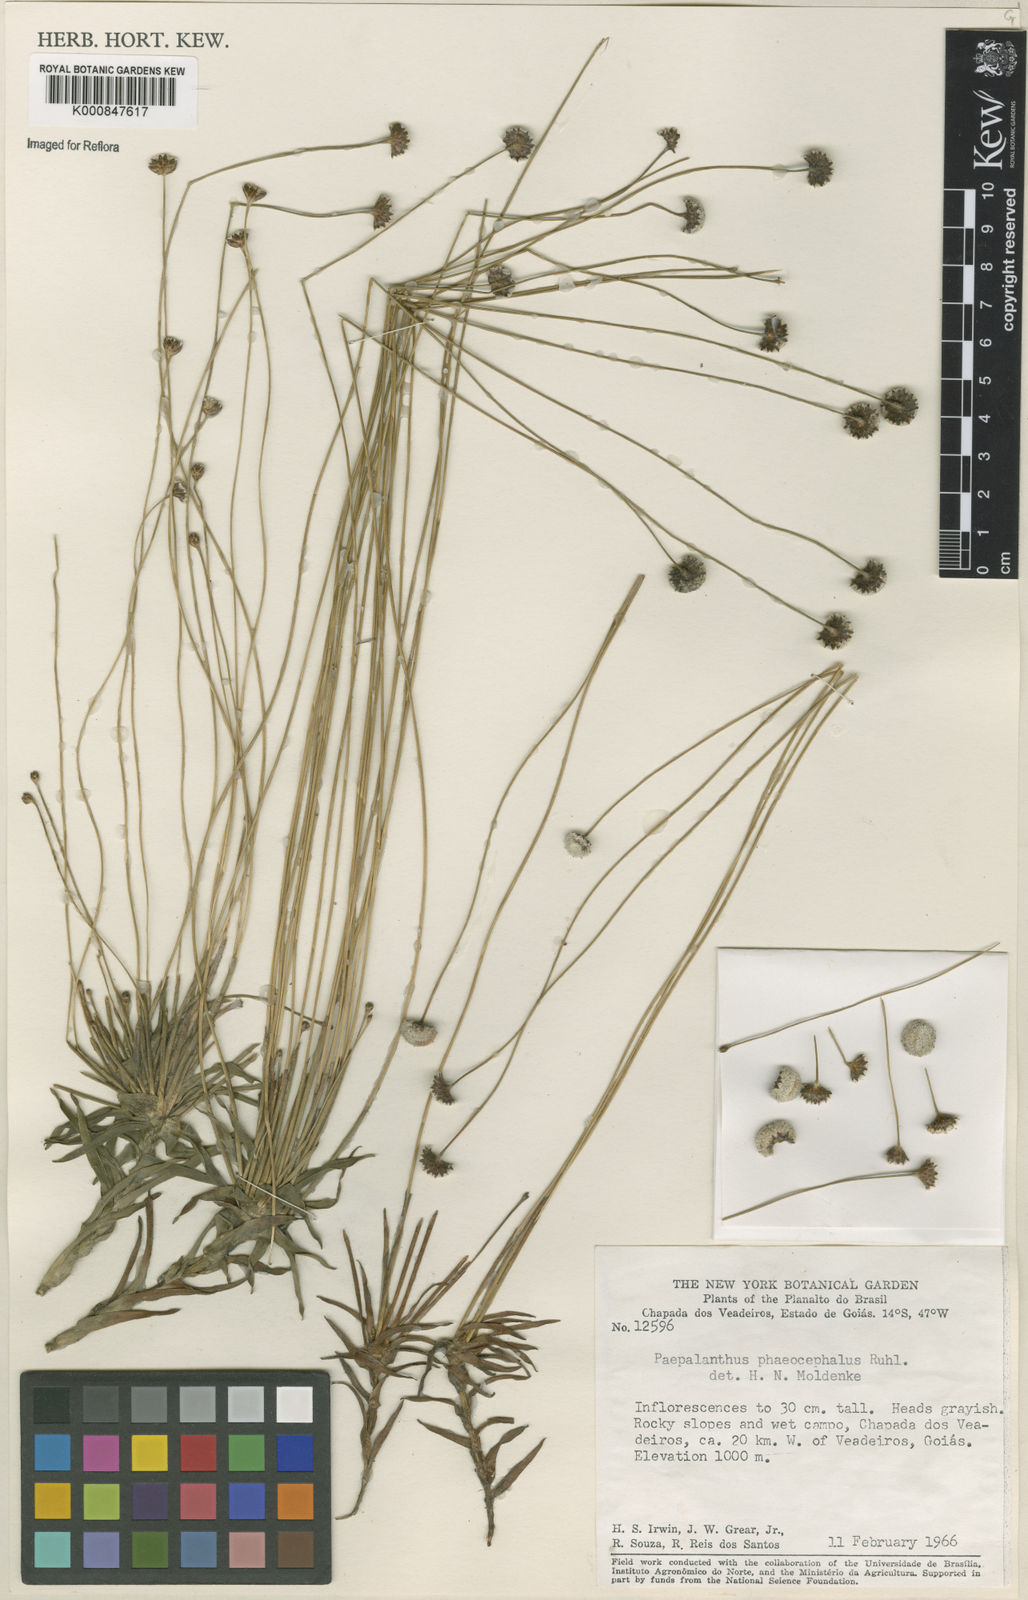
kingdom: Plantae
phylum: Tracheophyta
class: Liliopsida
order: Poales
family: Eriocaulaceae
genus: Paepalanthus
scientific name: Paepalanthus phaeocephalus
